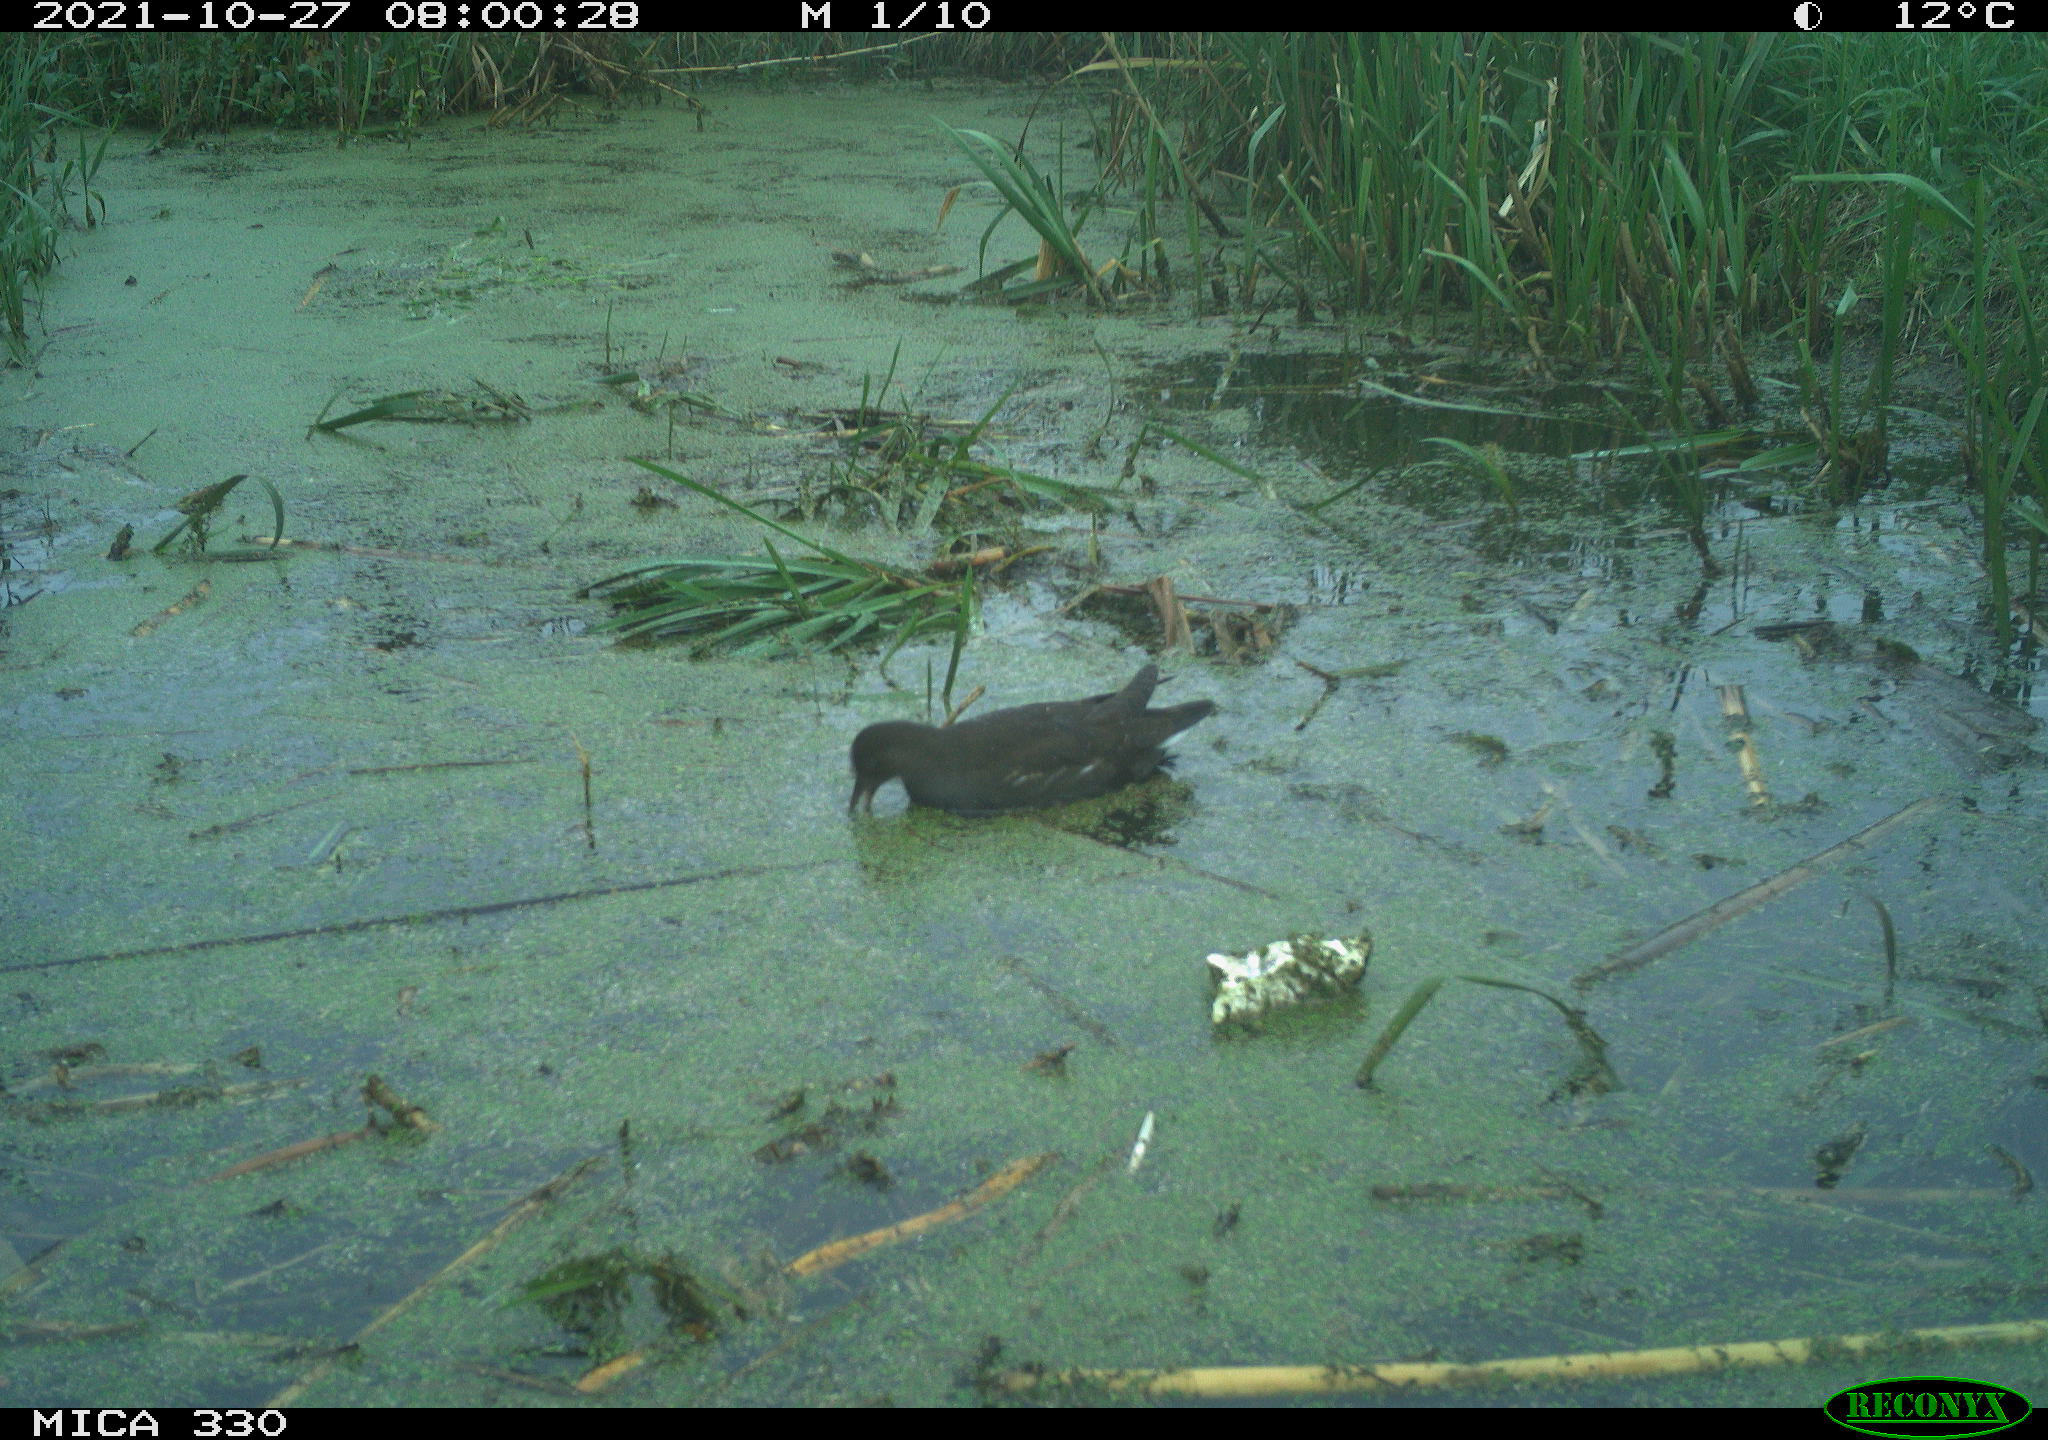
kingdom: Animalia
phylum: Chordata
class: Aves
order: Gruiformes
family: Rallidae
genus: Gallinula
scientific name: Gallinula chloropus
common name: Common moorhen
